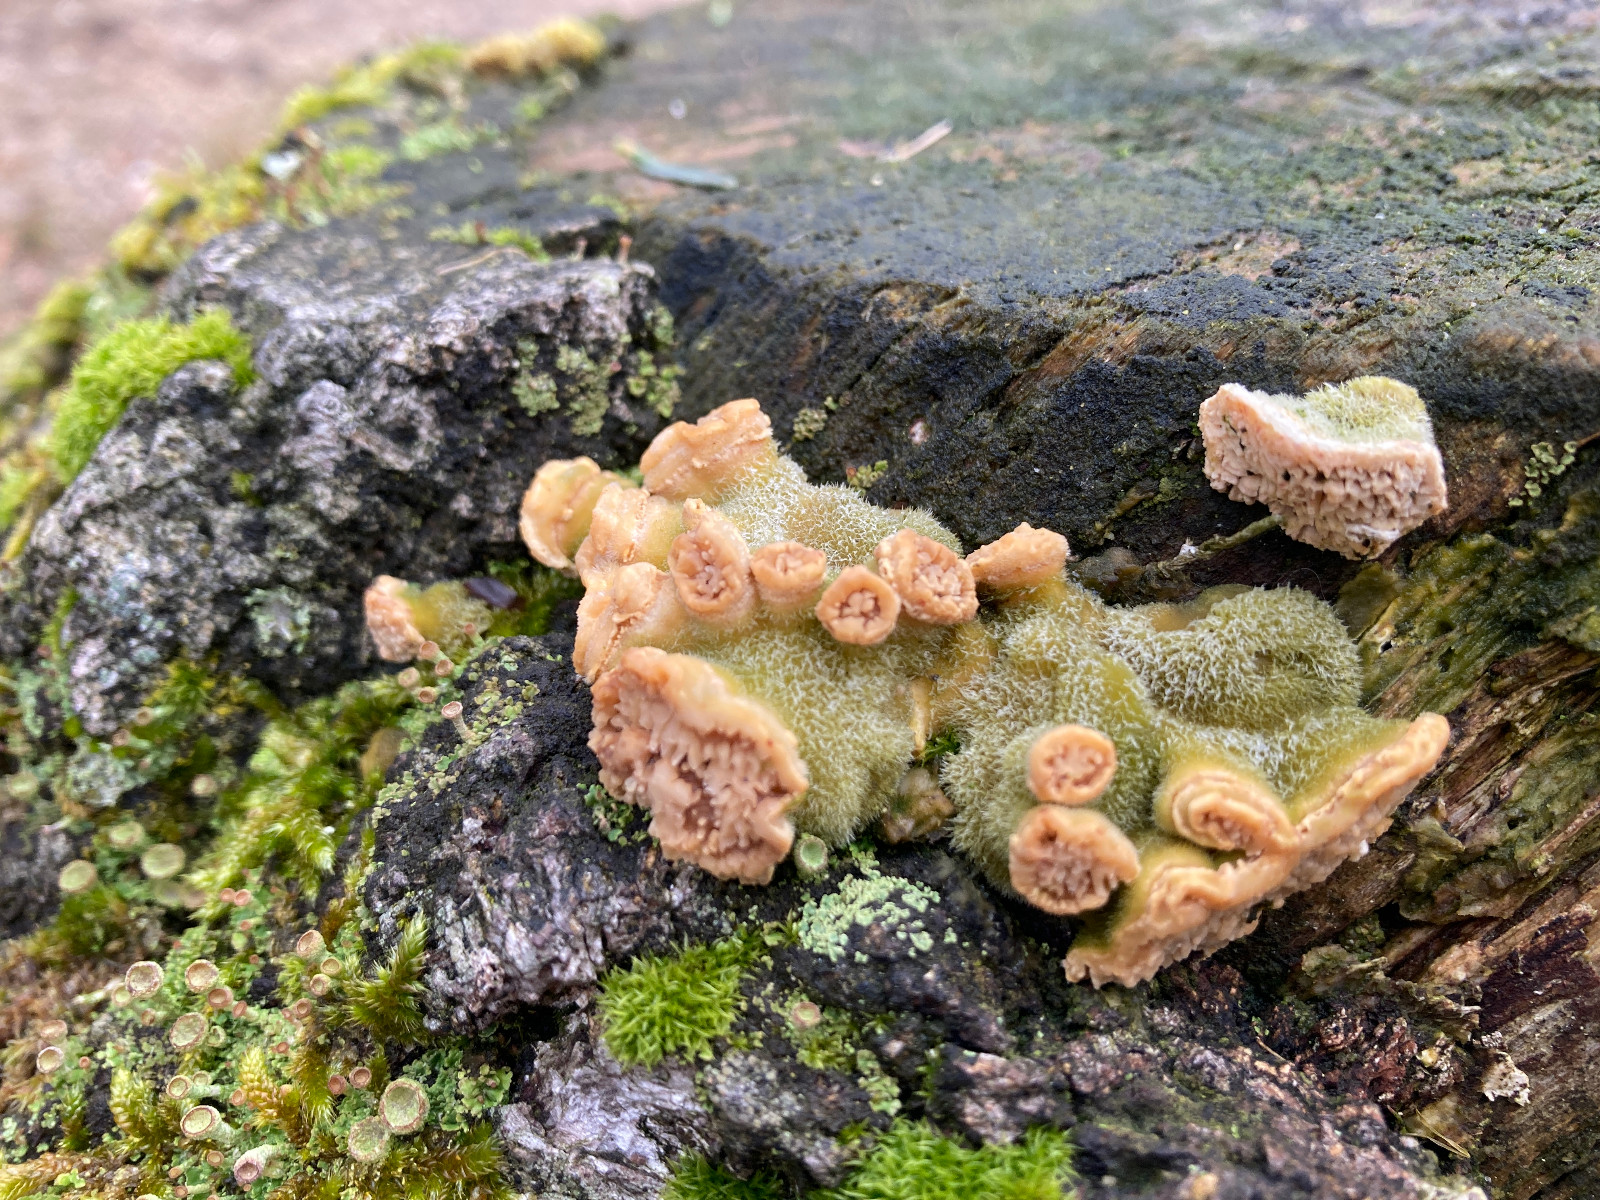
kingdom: Fungi
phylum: Basidiomycota
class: Agaricomycetes
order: Polyporales
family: Polyporaceae
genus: Lenzites
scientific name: Lenzites betulinus
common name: birke-læderporesvamp
